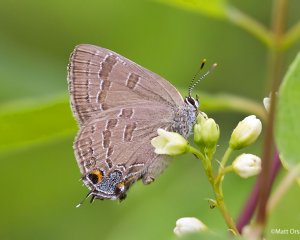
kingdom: Animalia
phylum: Arthropoda
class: Insecta
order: Lepidoptera
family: Lycaenidae
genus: Strymon
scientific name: Strymon caryaevorus
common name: Hickory Hairstreak
